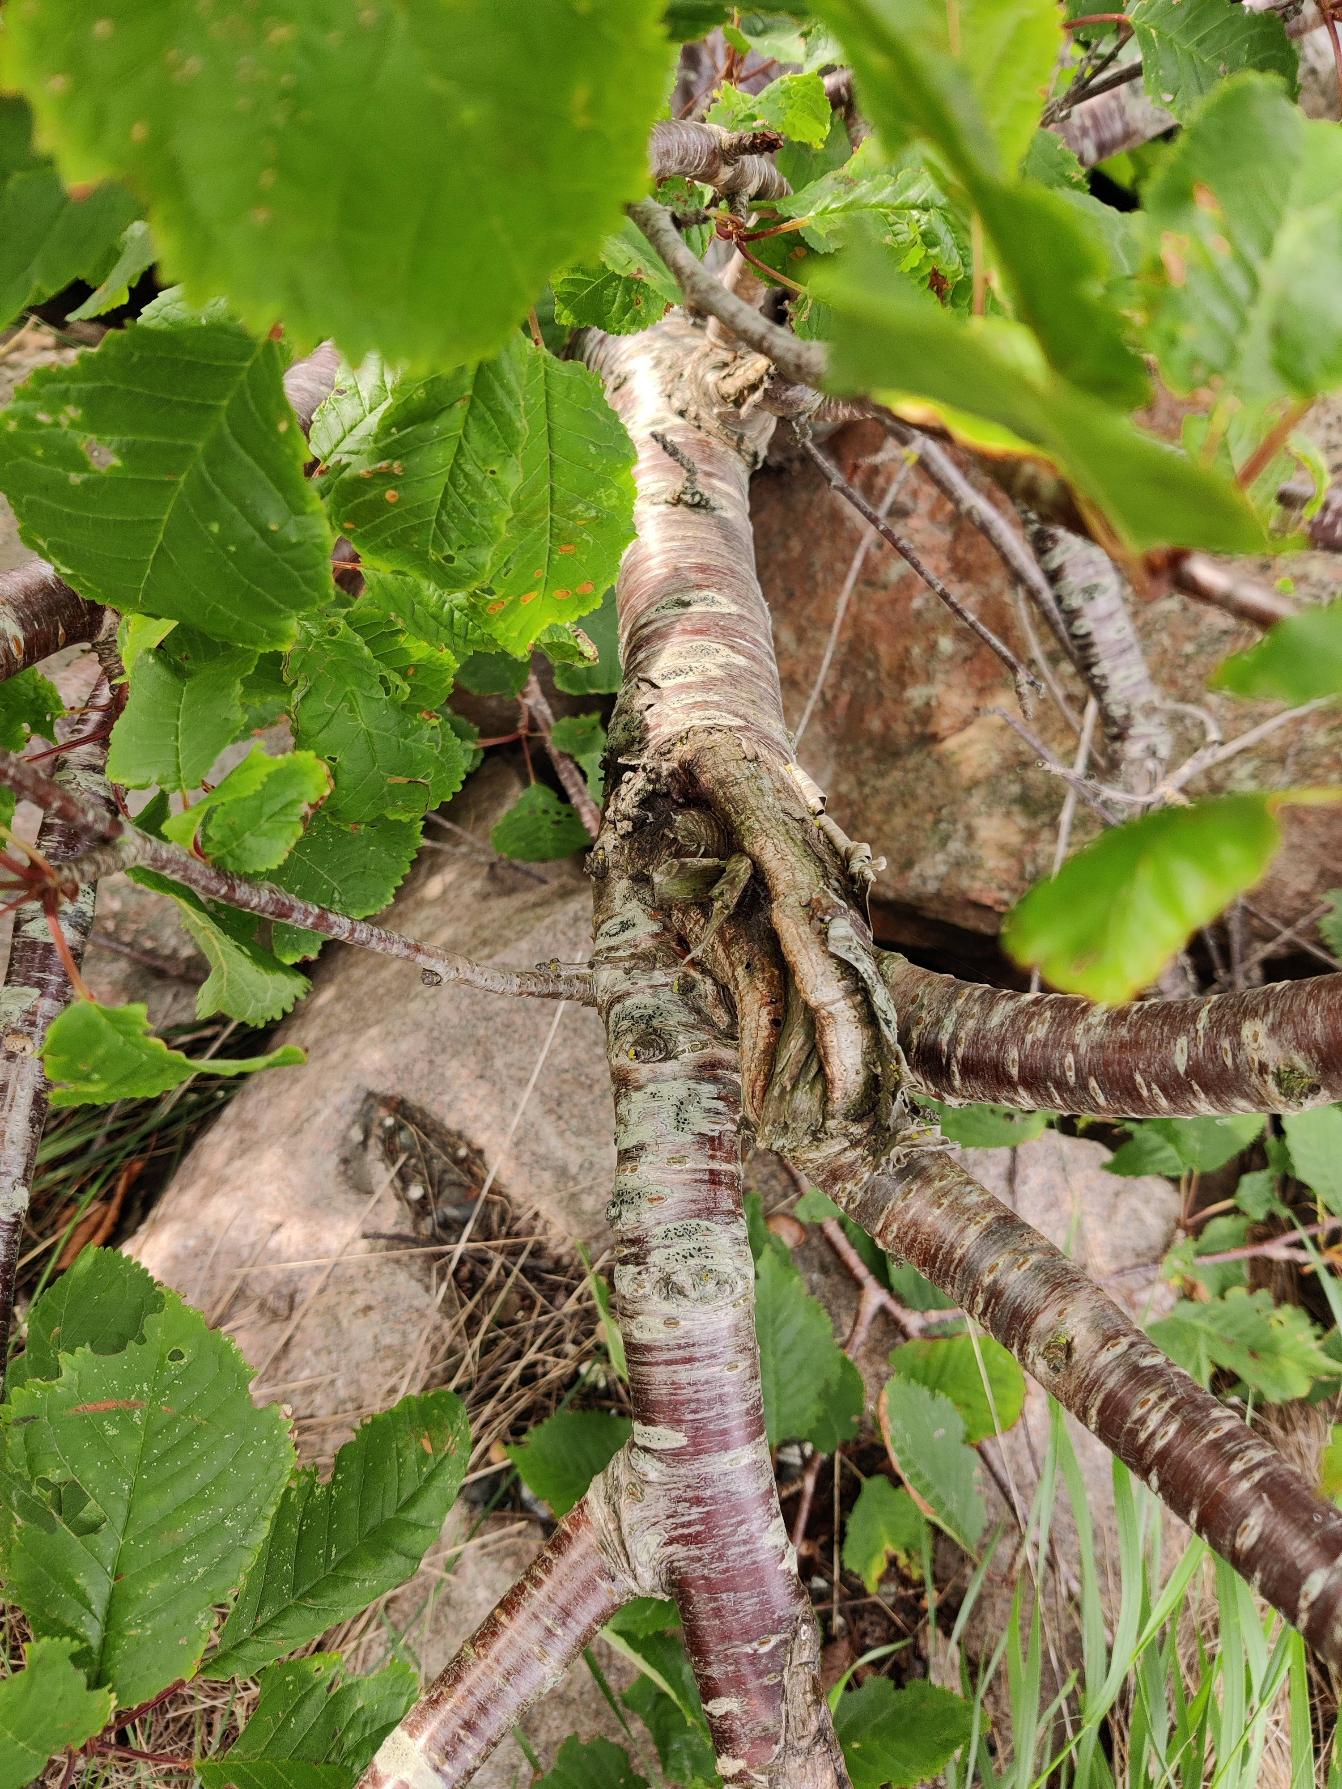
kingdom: Plantae
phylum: Tracheophyta
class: Magnoliopsida
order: Rosales
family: Rosaceae
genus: Prunus
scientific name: Prunus avium
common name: Fugle-kirsebær
